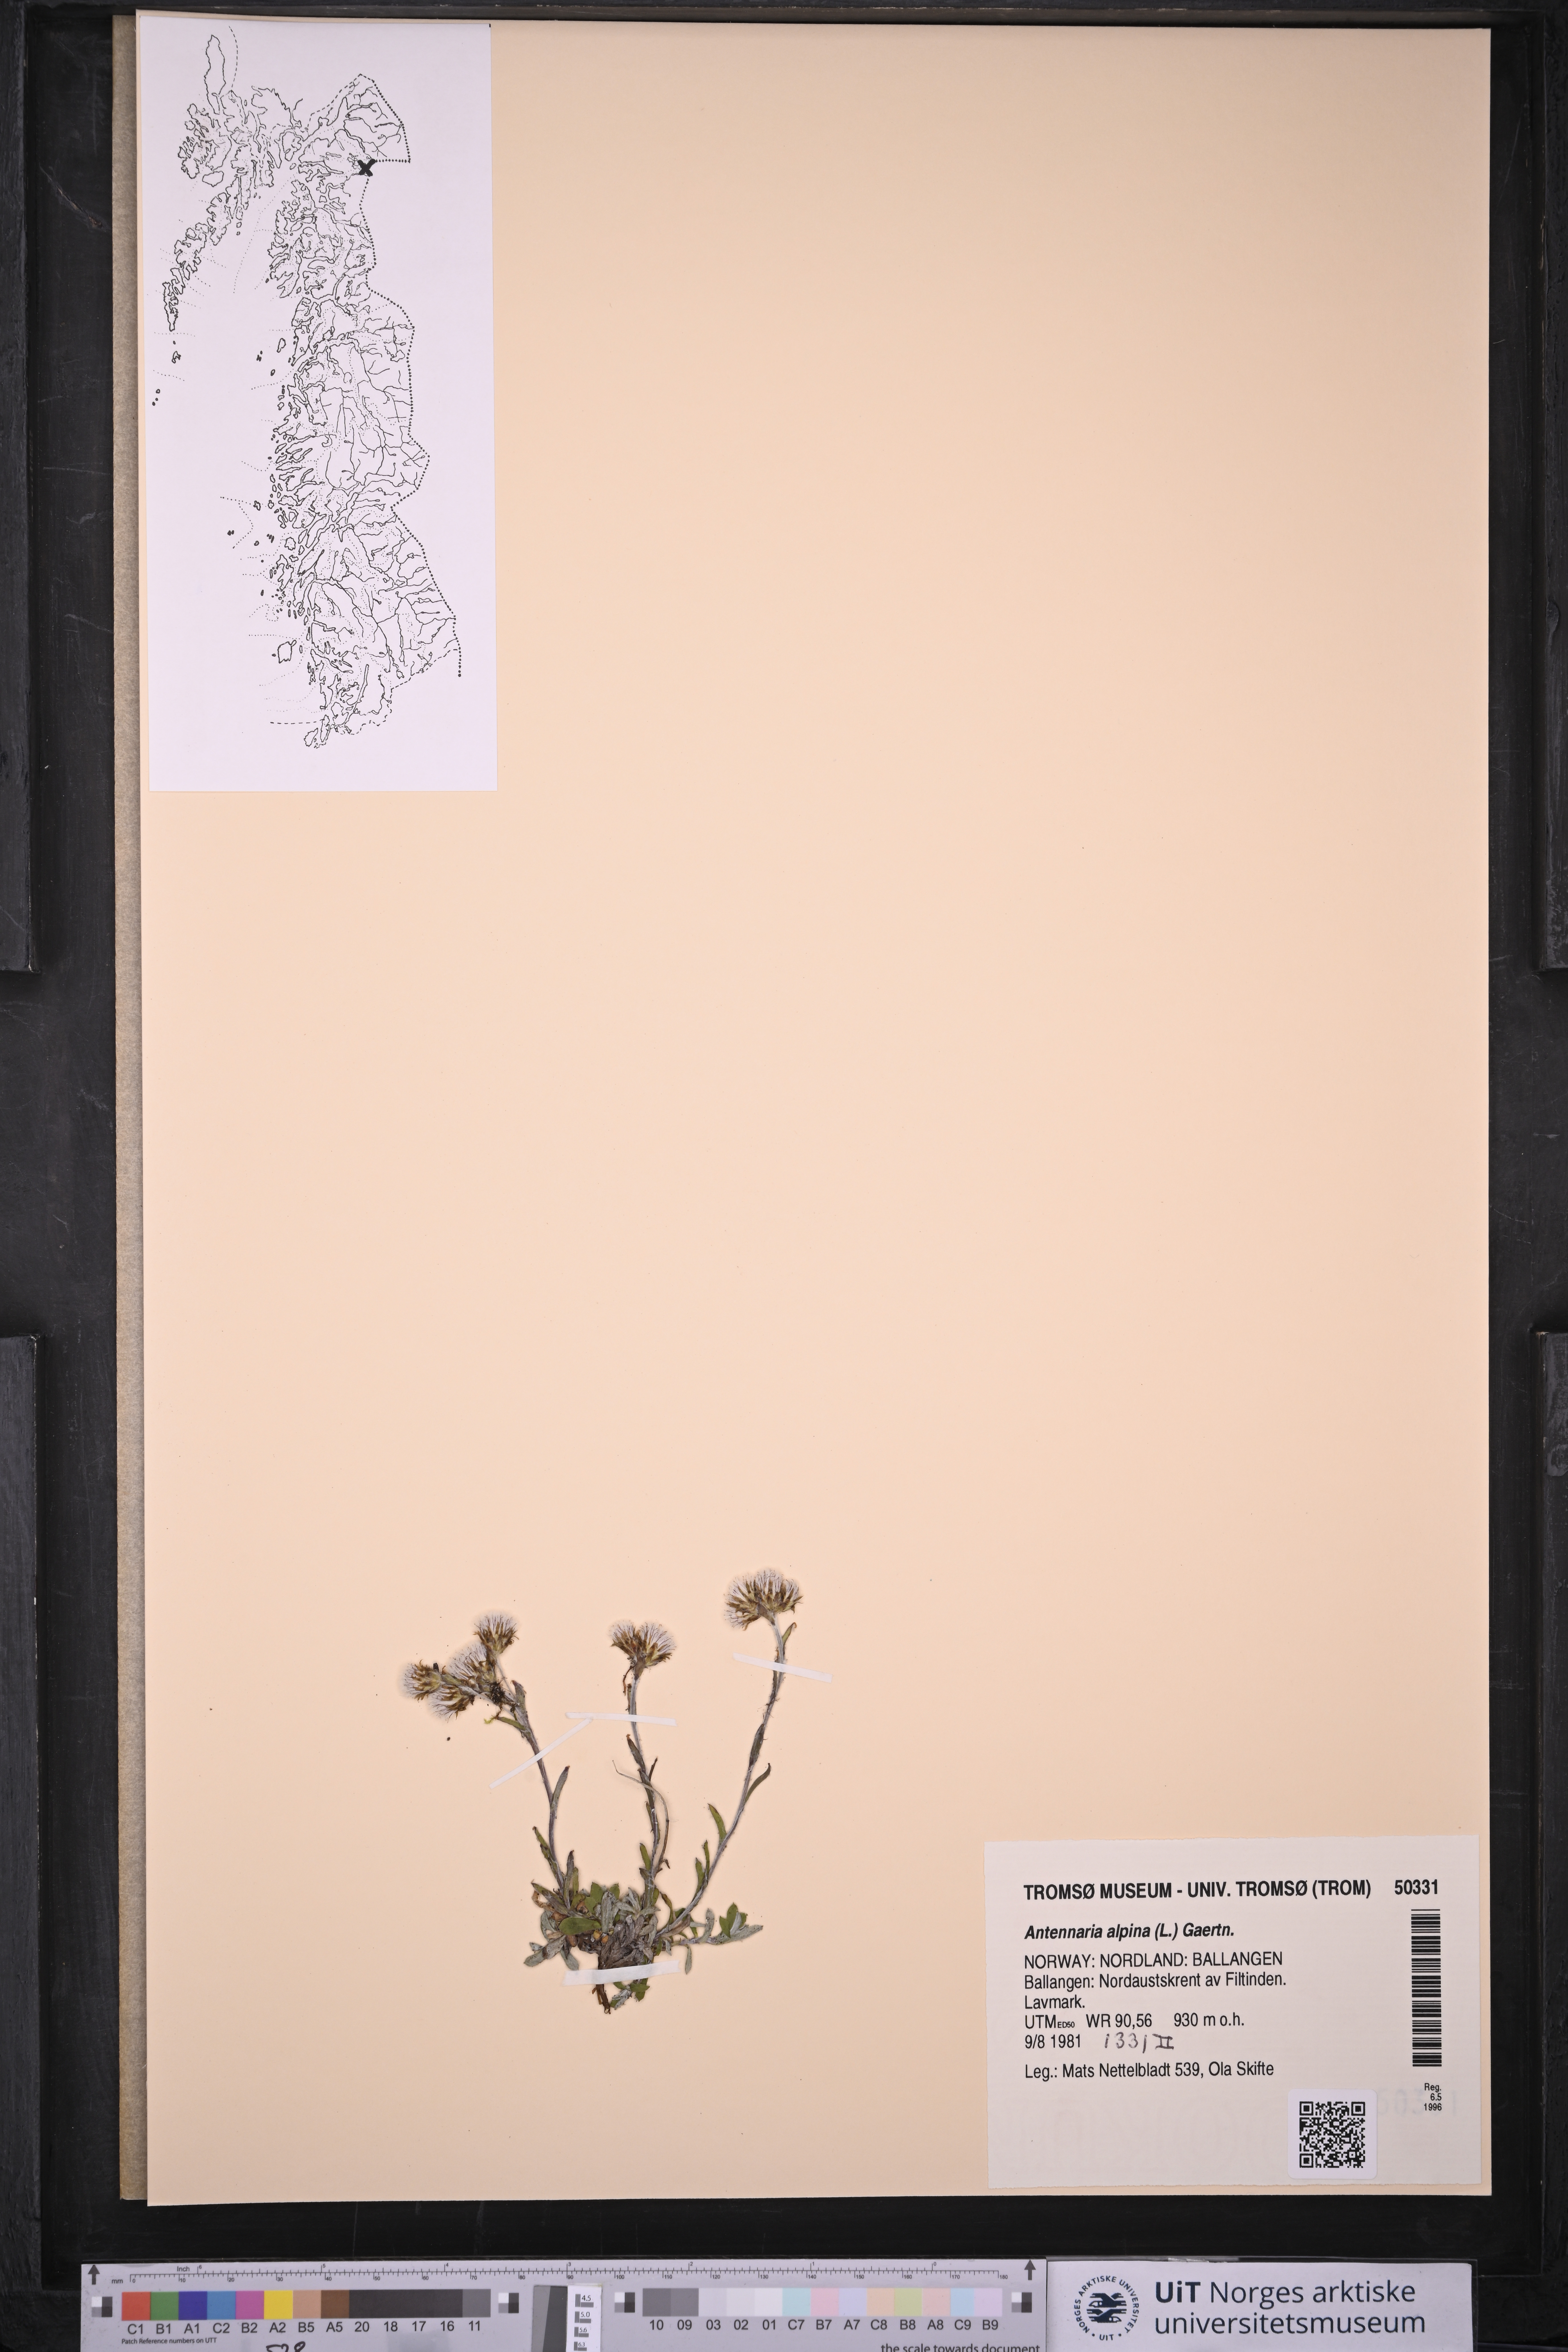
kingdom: Plantae
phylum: Tracheophyta
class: Magnoliopsida
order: Asterales
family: Asteraceae
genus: Antennaria
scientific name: Antennaria alpina
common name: Alpine pussytoes
